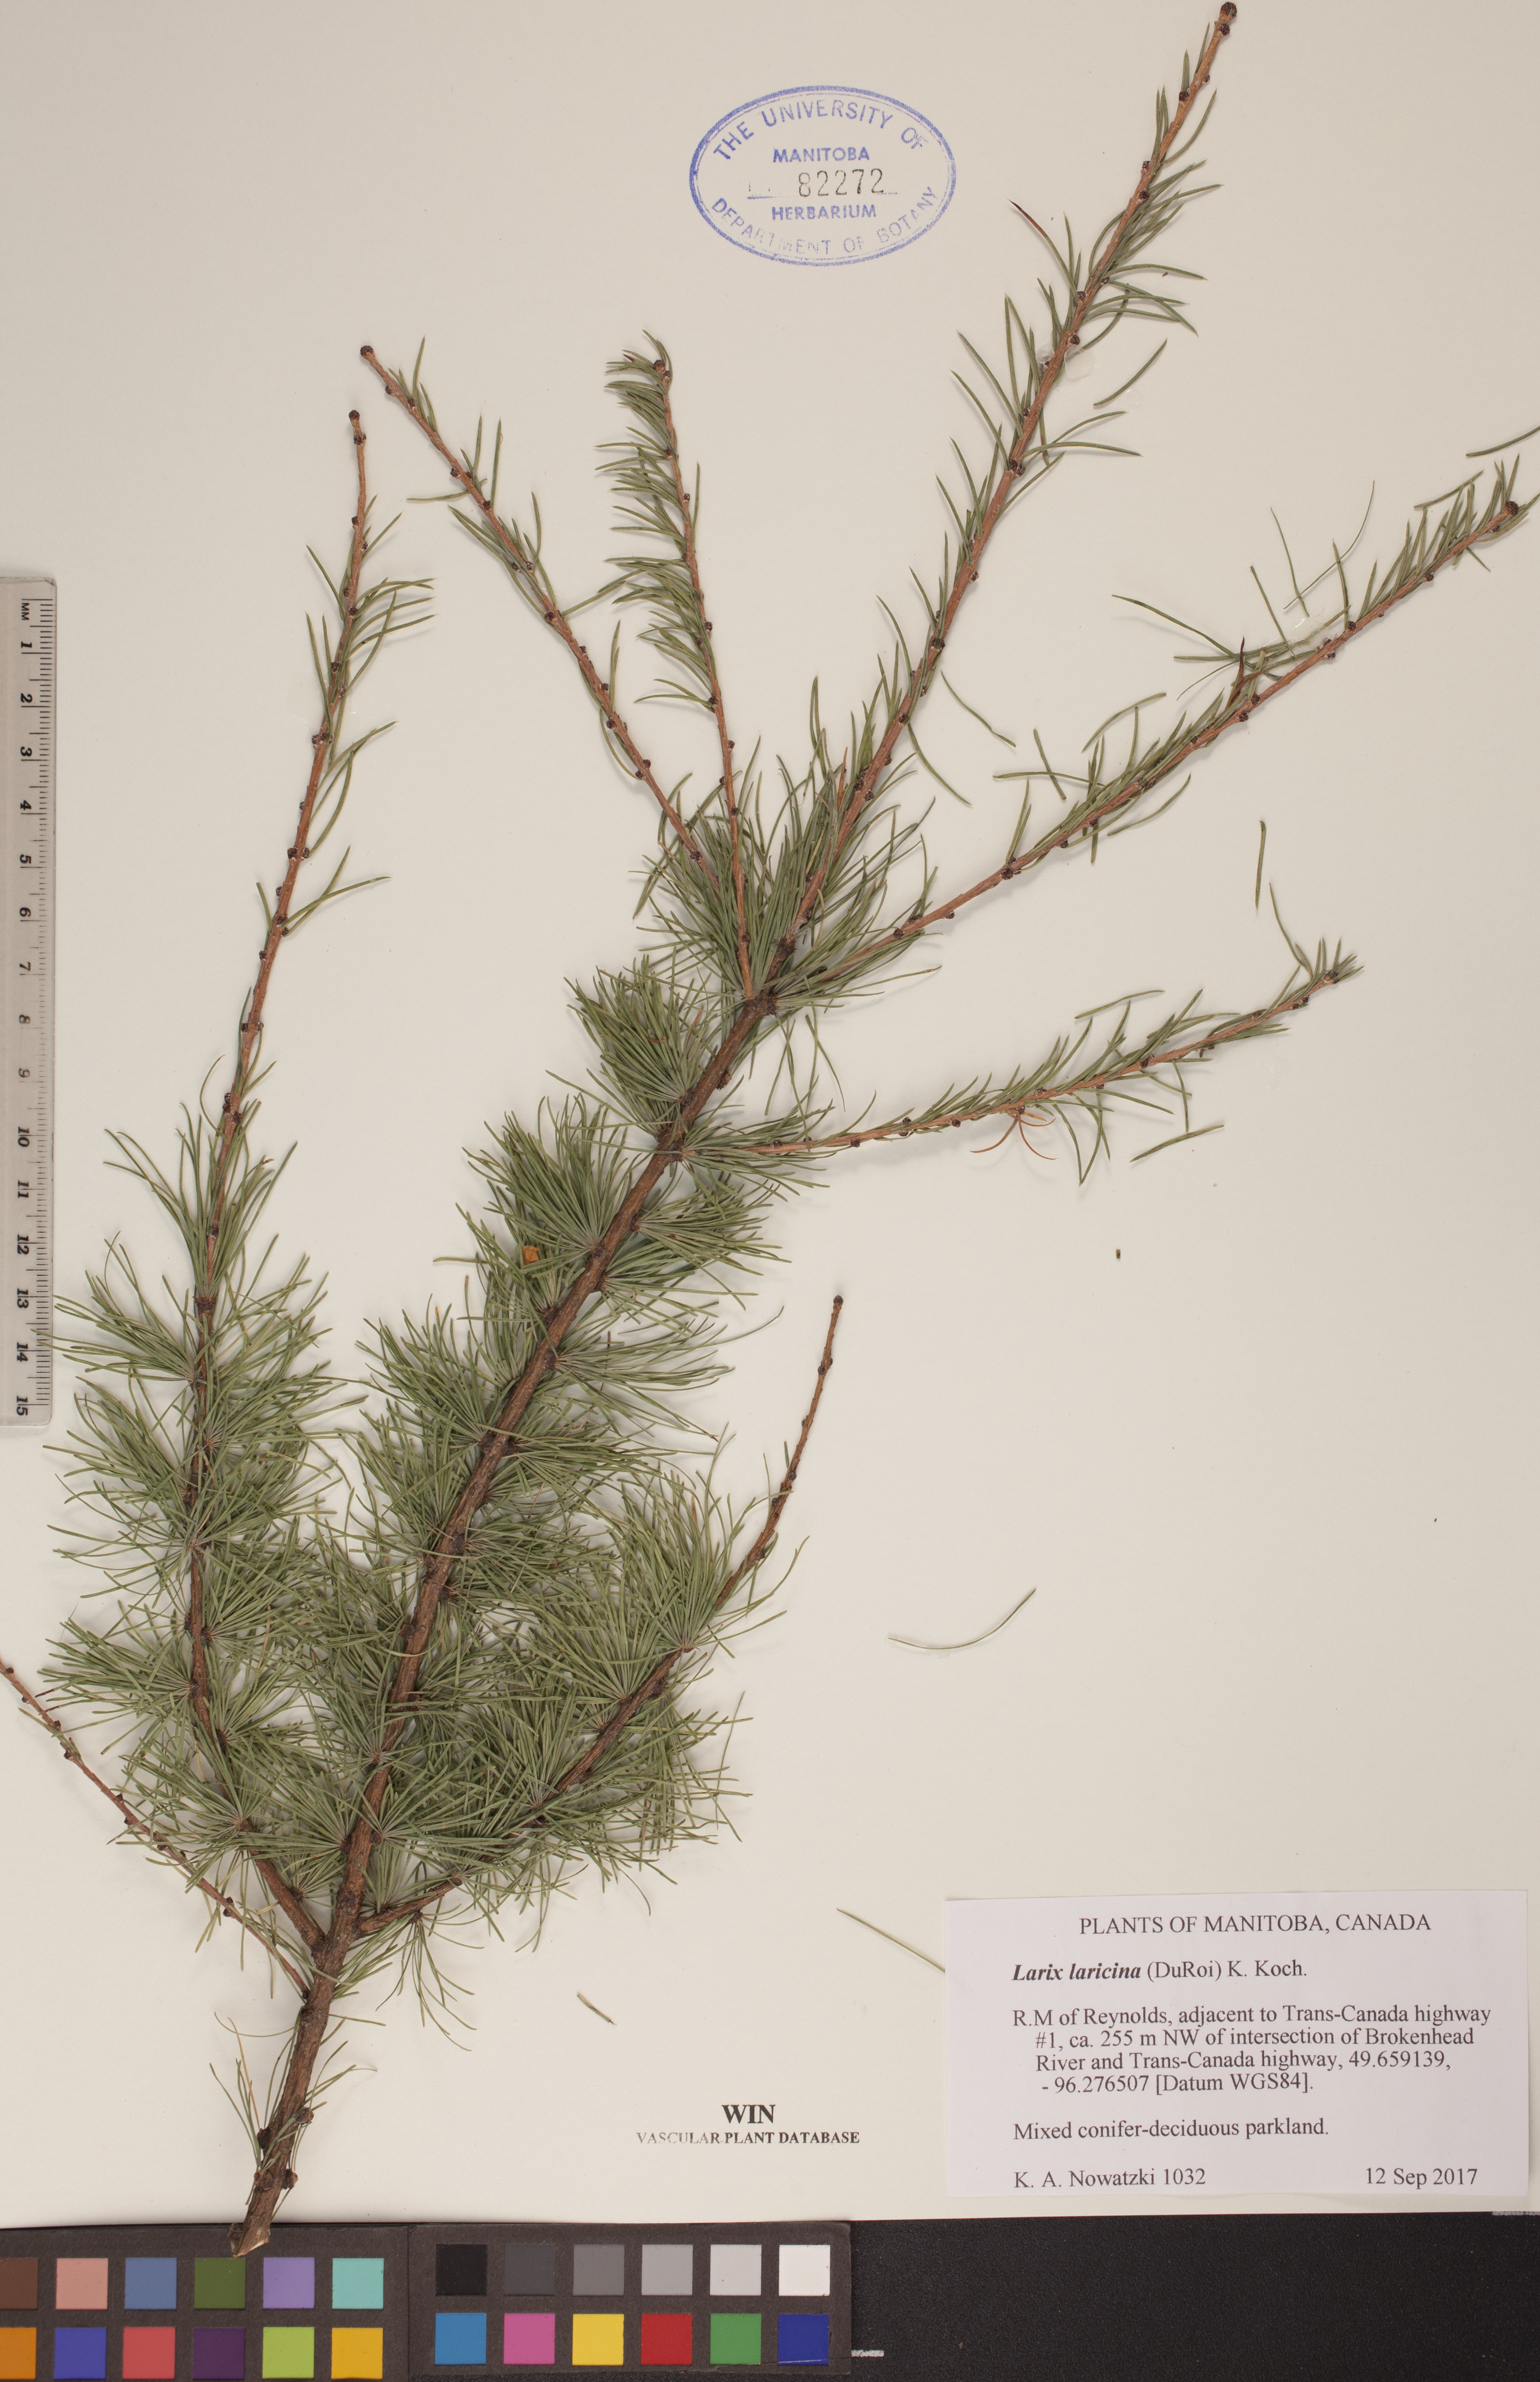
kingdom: Plantae
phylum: Tracheophyta
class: Pinopsida
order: Pinales
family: Pinaceae
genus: Larix
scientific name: Larix laricina
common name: American larch
